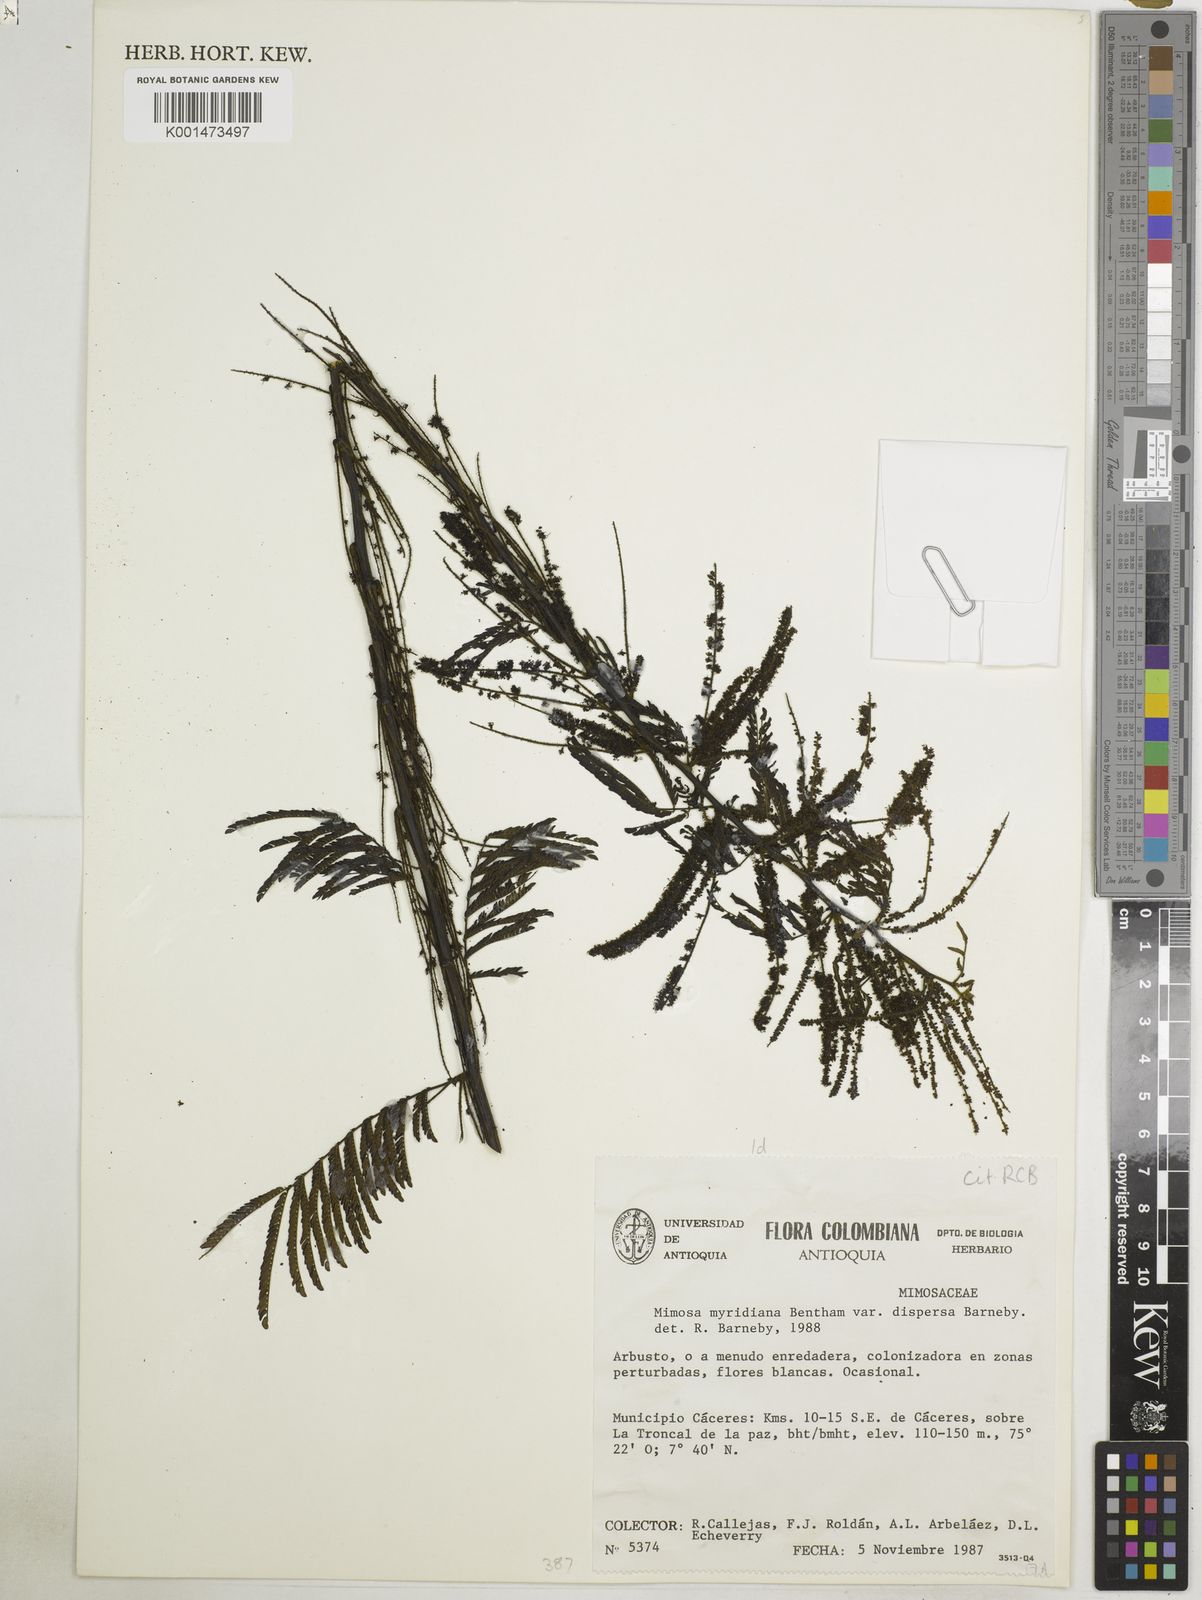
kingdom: Plantae
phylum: Tracheophyta
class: Magnoliopsida
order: Fabales
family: Fabaceae
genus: Mimosa
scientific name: Mimosa myriadenia
